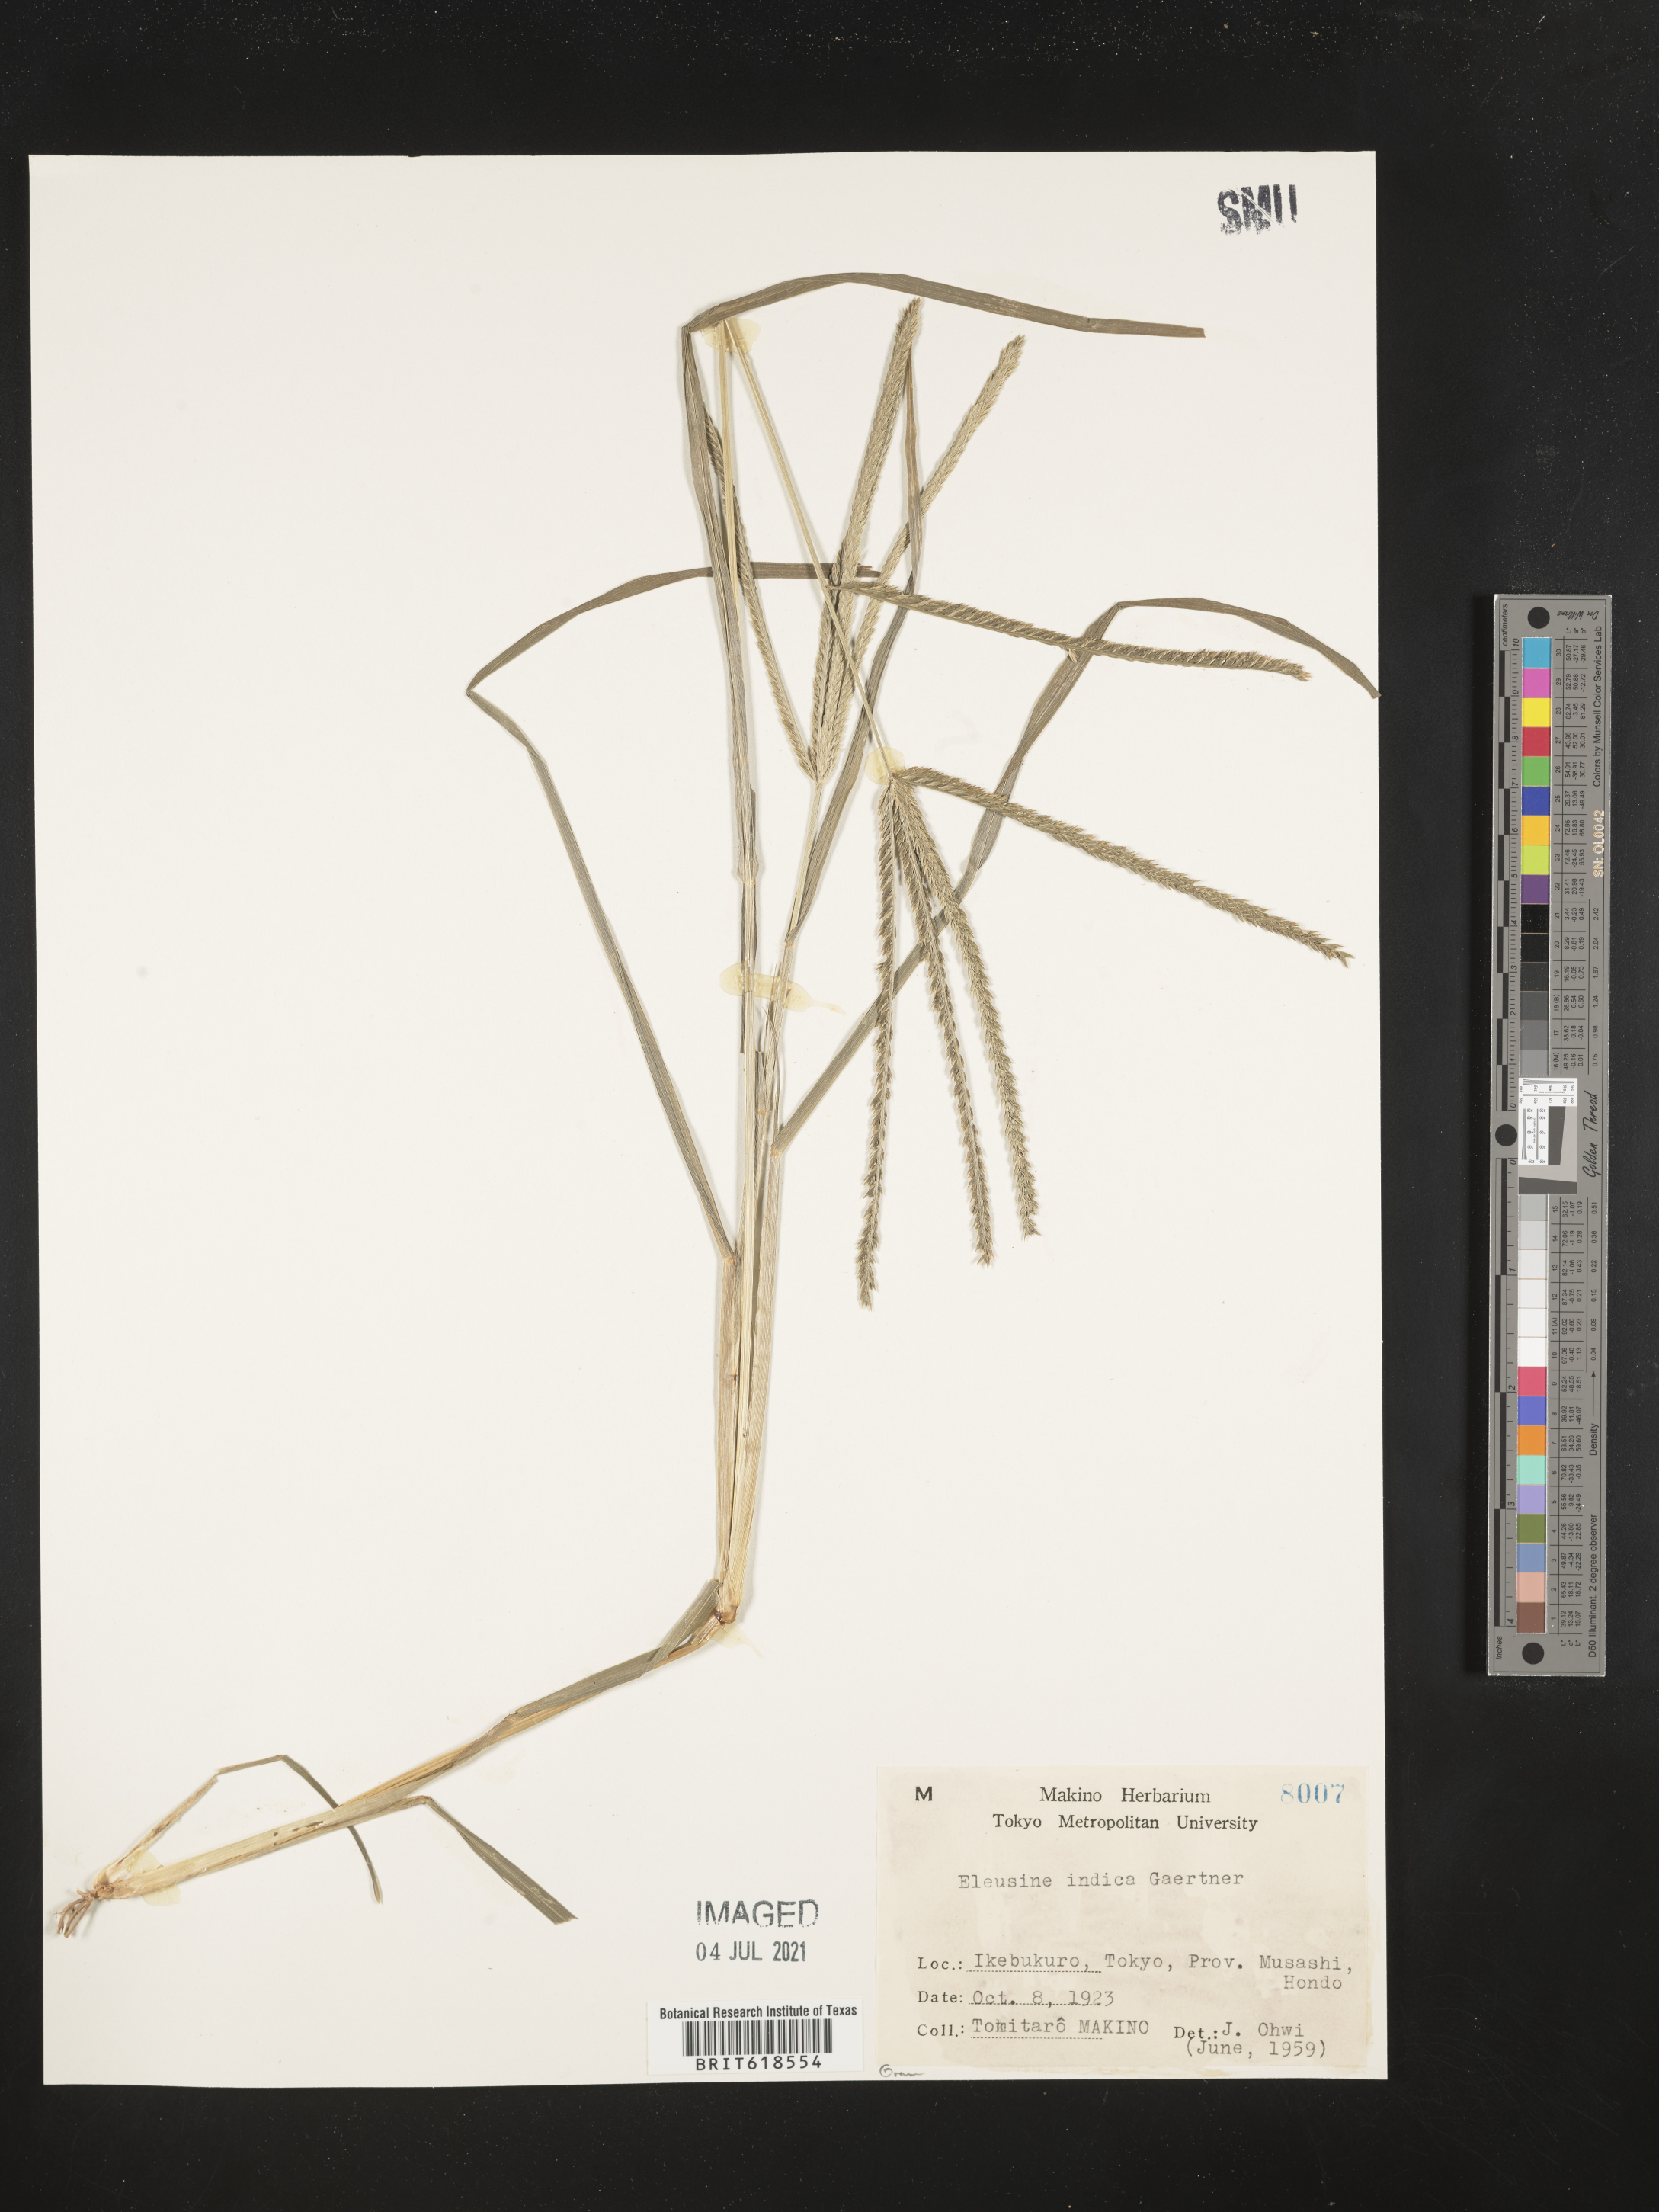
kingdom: Plantae
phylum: Tracheophyta
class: Liliopsida
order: Poales
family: Poaceae
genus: Eleusine
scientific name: Eleusine indica
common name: Yard-grass
